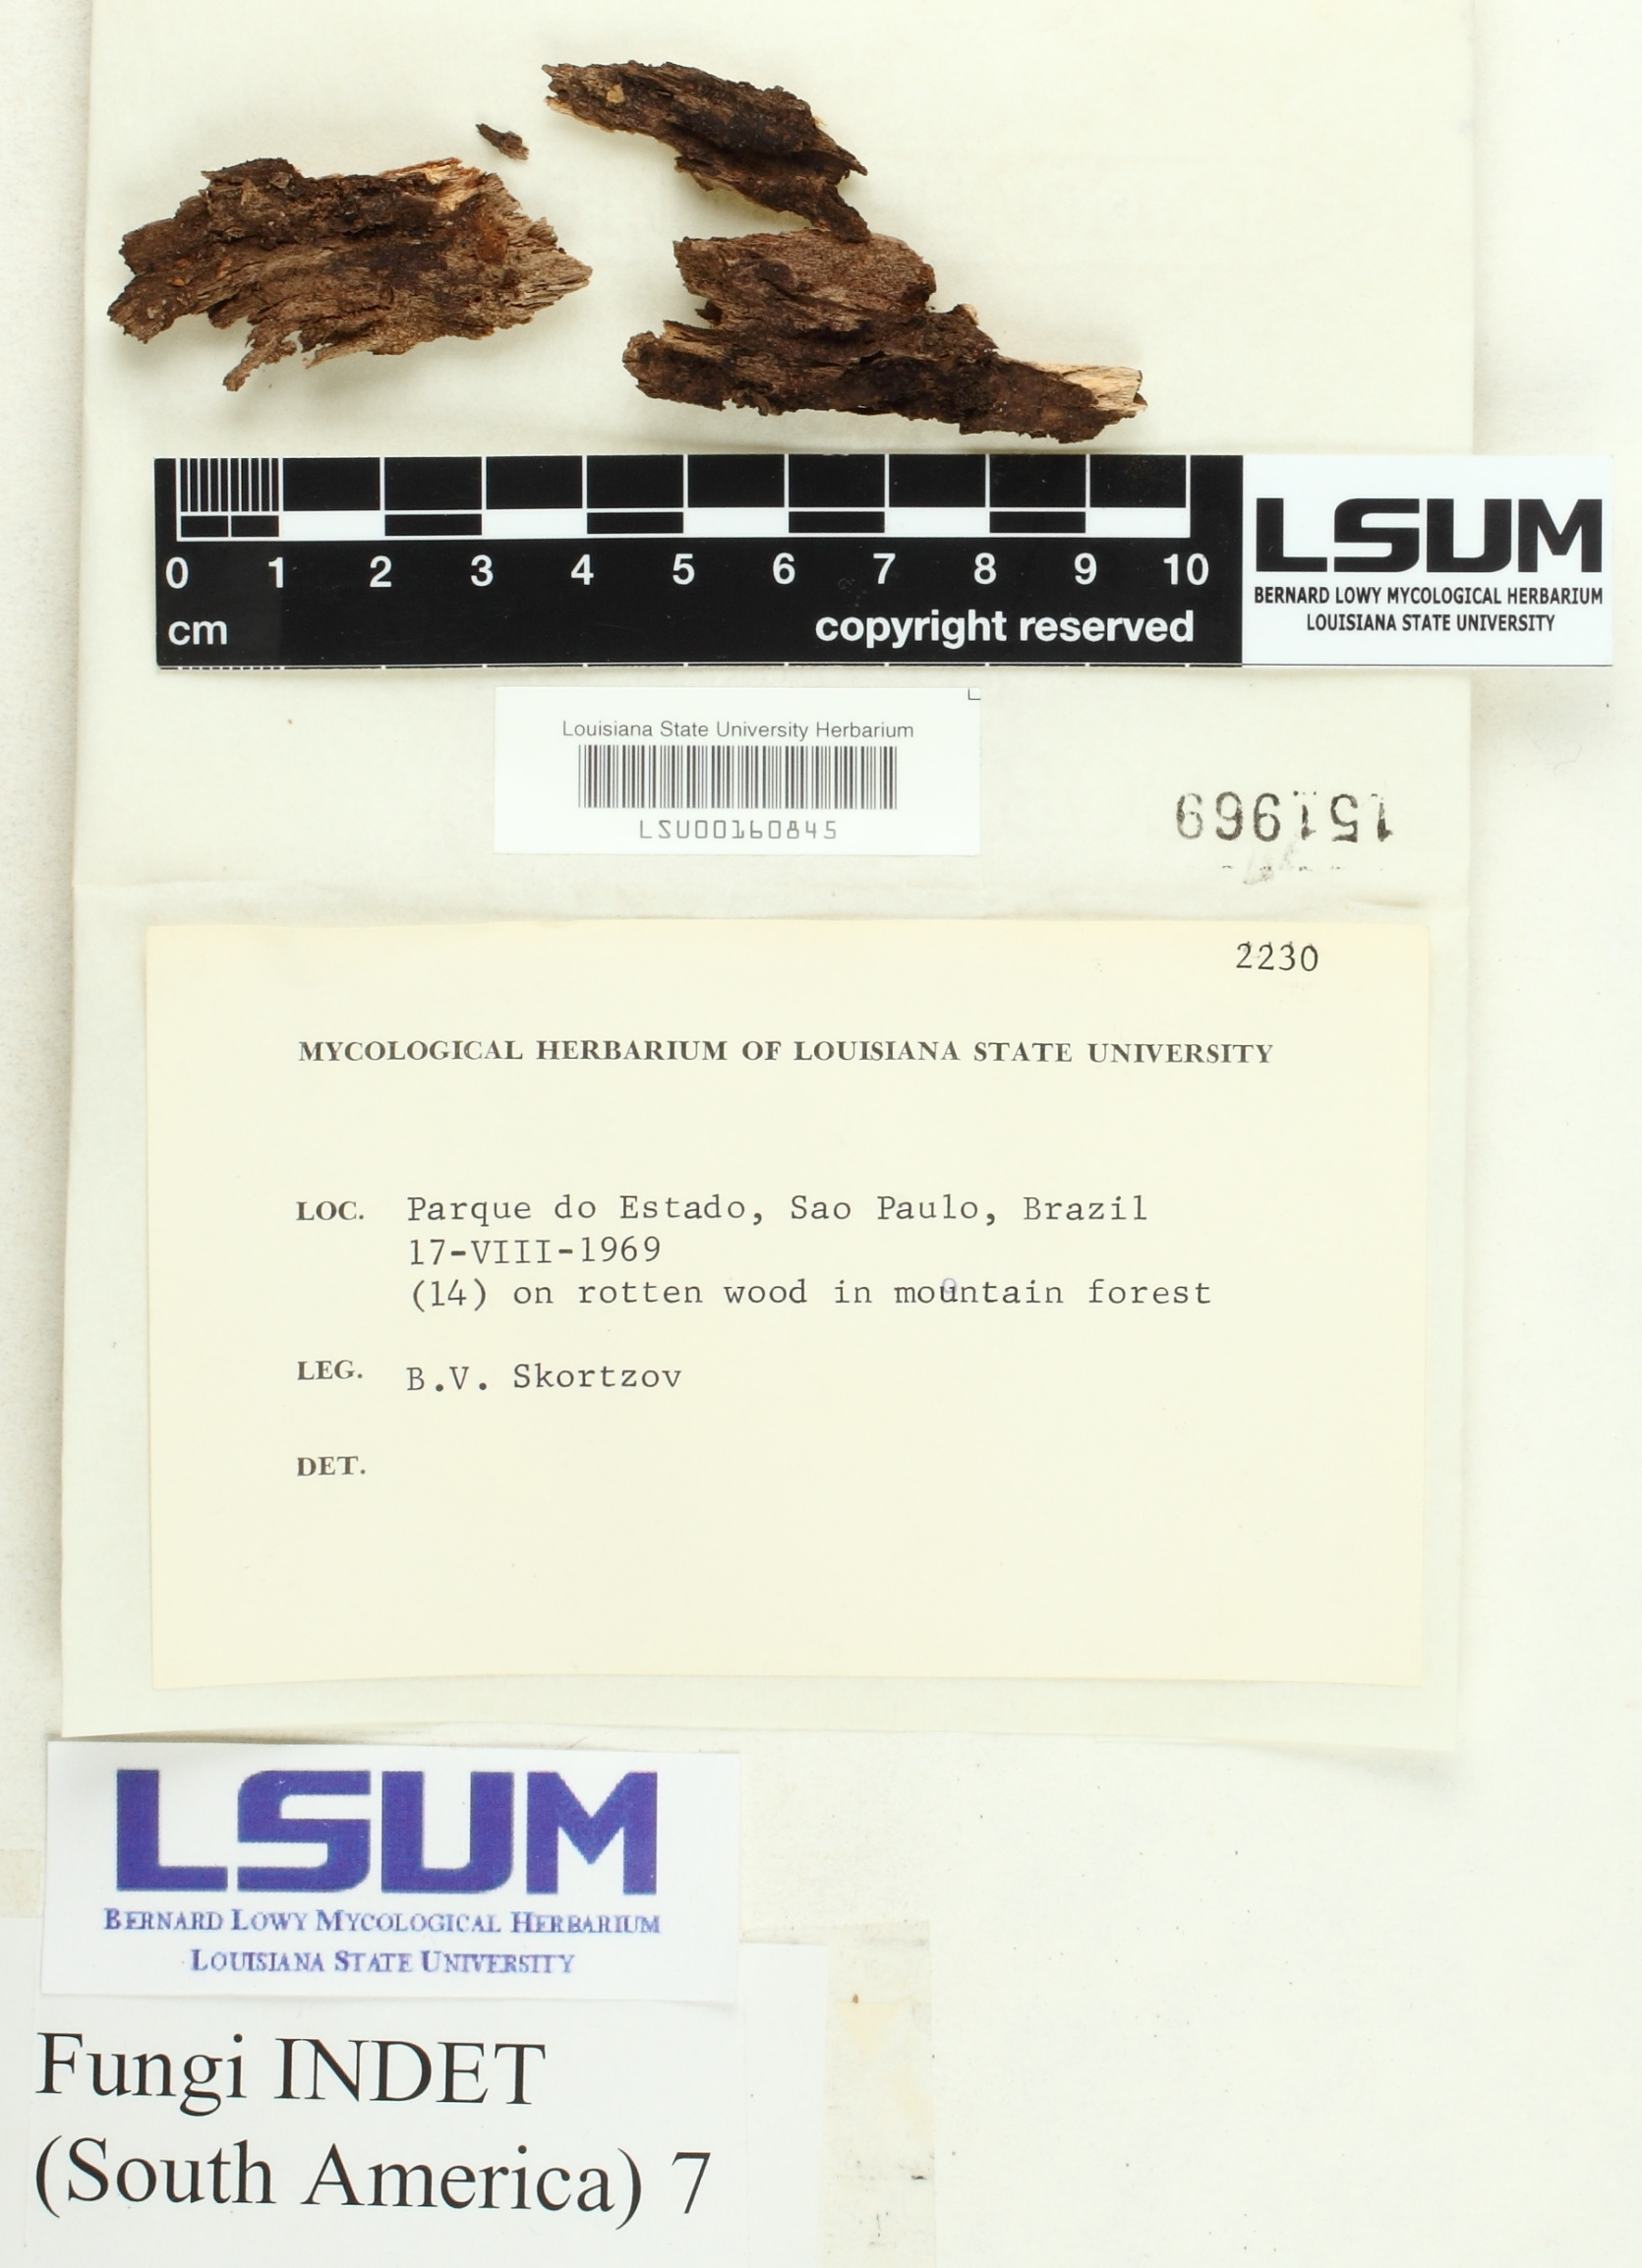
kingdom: Fungi
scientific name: Fungi
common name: Fungi
